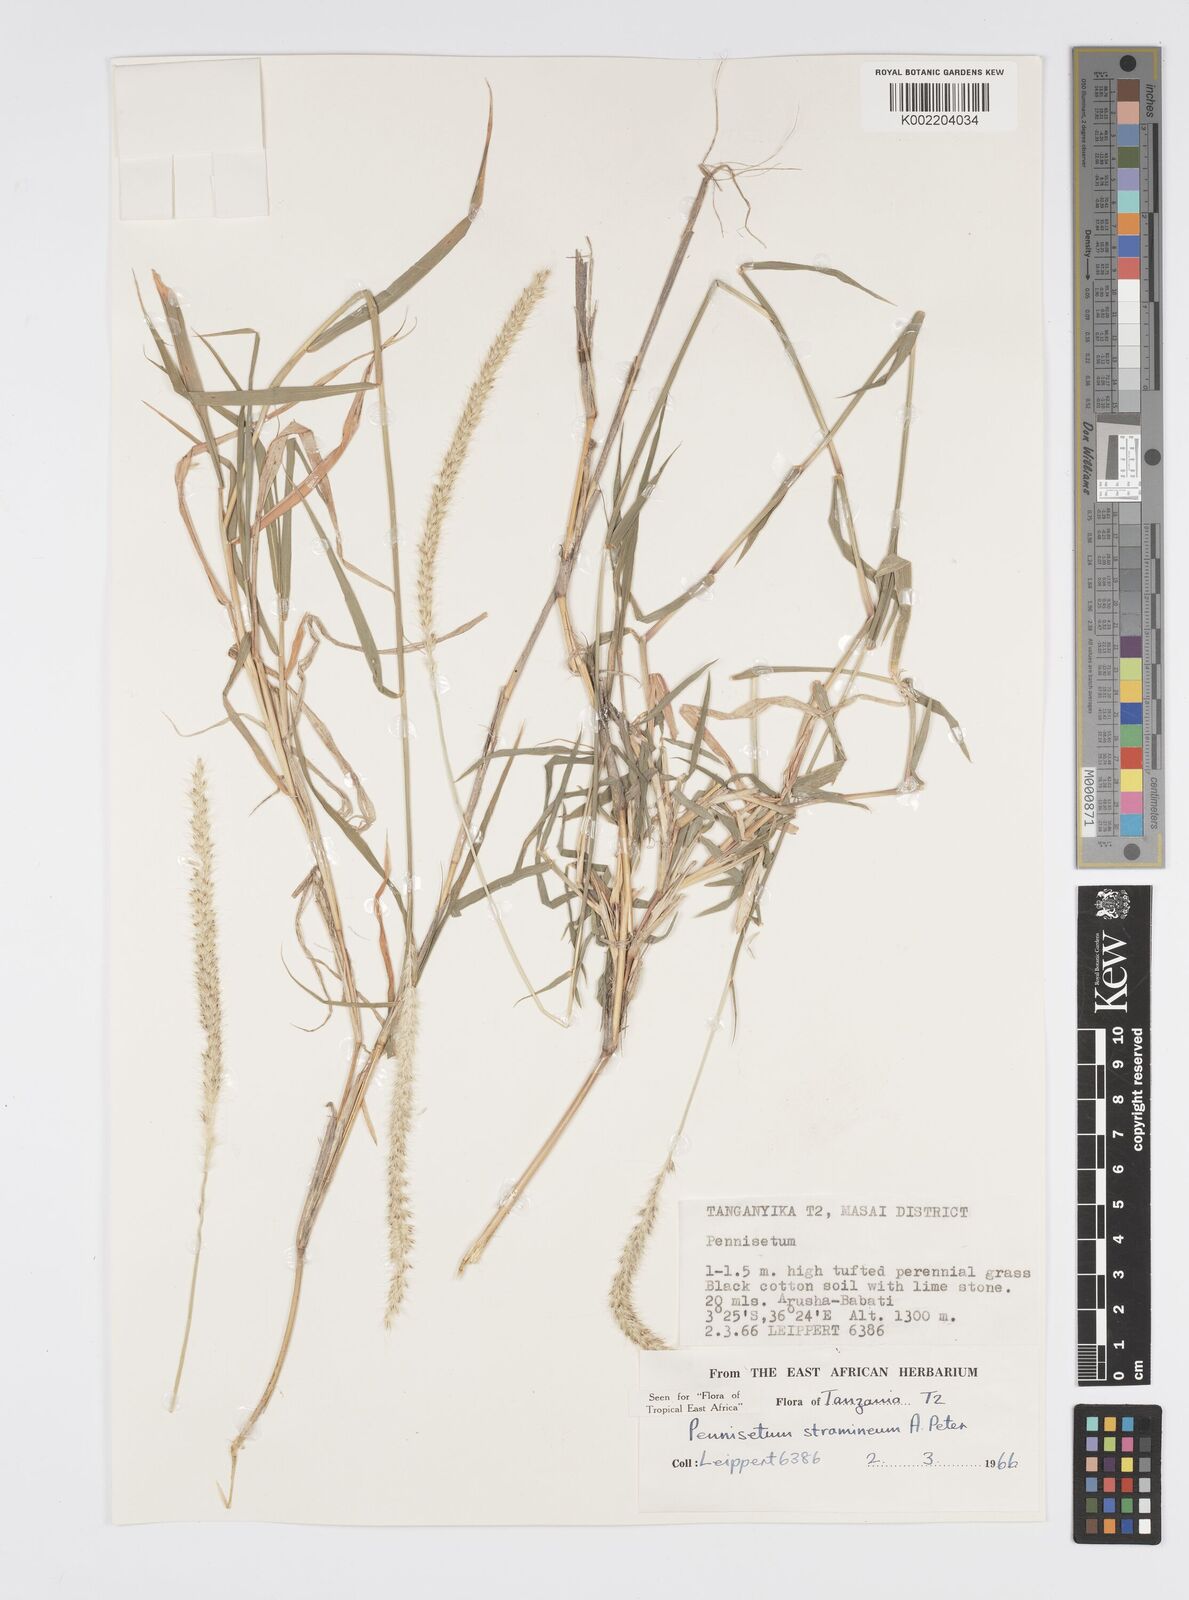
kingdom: Plantae
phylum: Tracheophyta
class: Liliopsida
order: Poales
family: Poaceae
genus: Cenchrus
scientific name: Cenchrus stramineus
